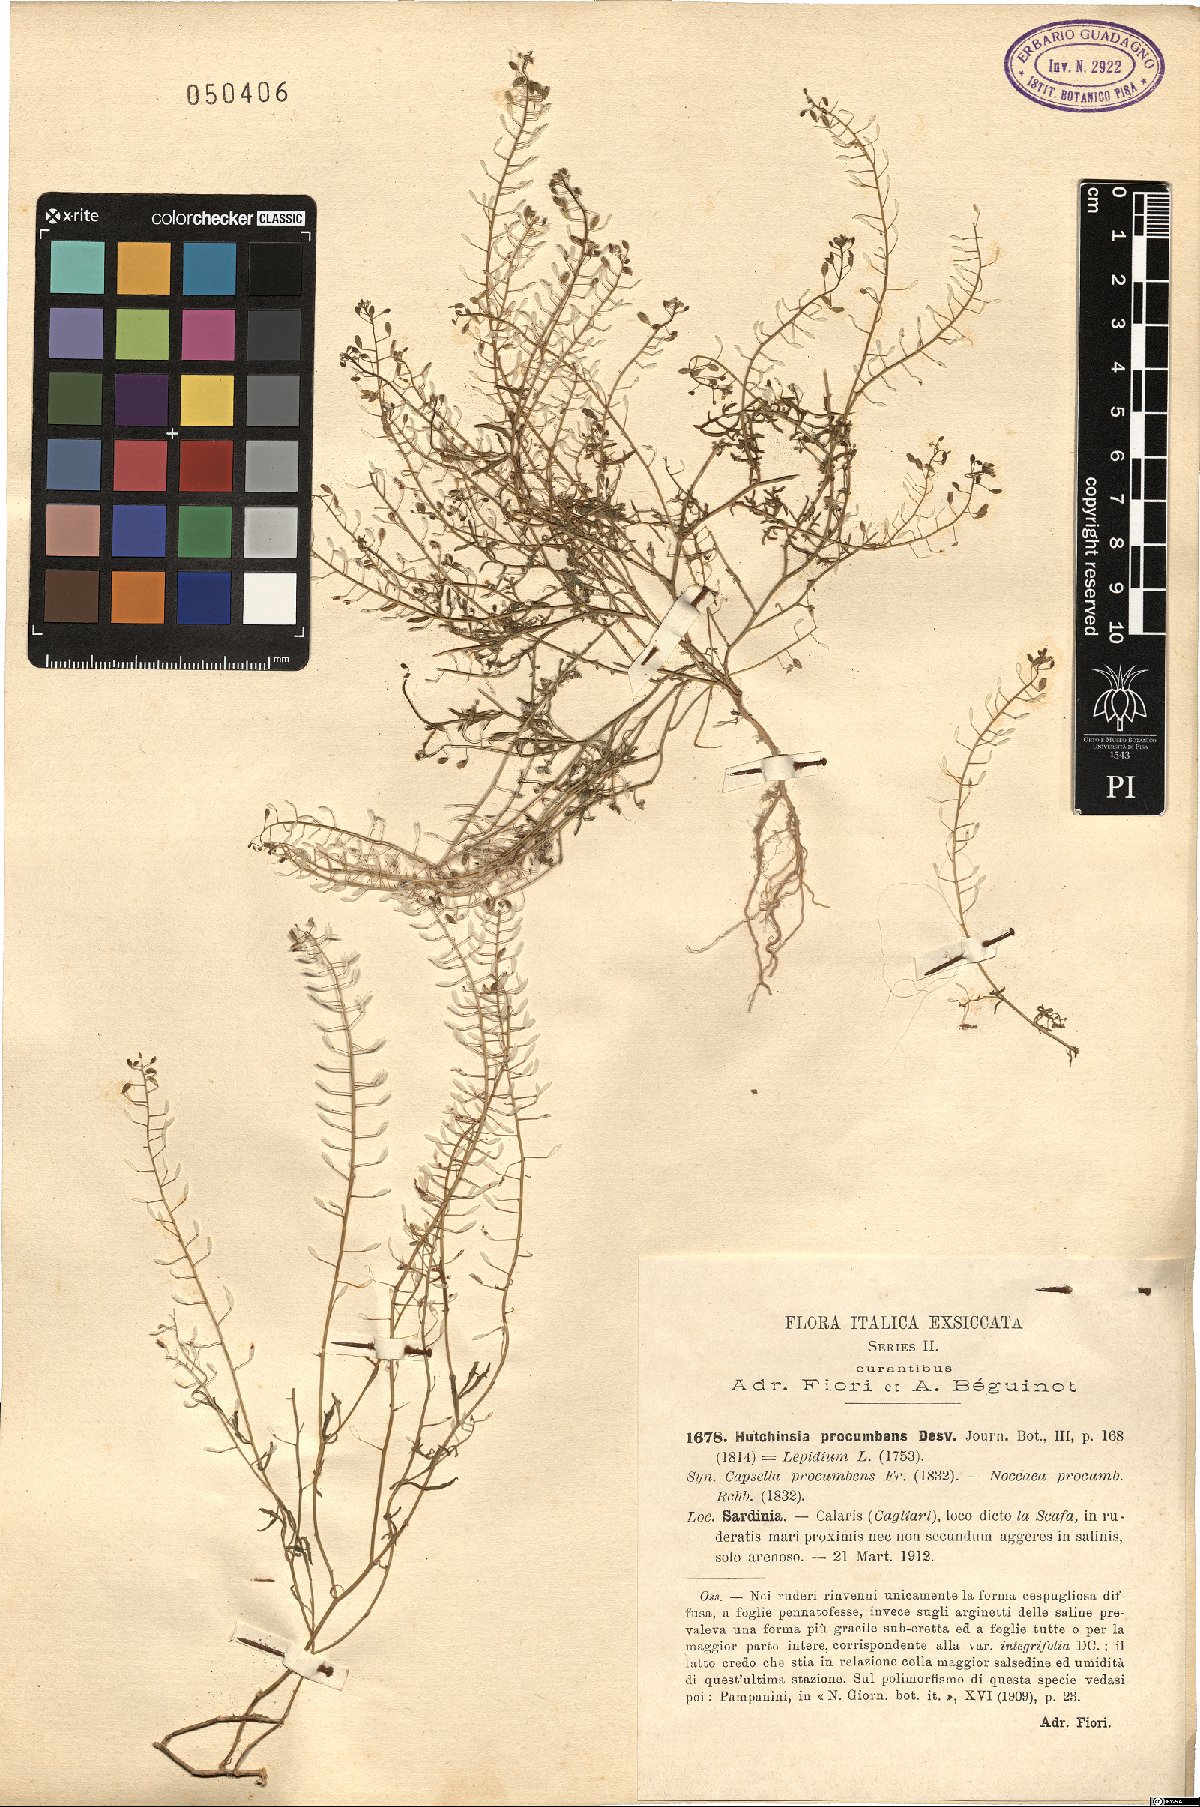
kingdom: Plantae
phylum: Tracheophyta
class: Magnoliopsida
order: Brassicales
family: Brassicaceae
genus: Hornungia
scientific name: Hornungia procumbens
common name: Oval purse
